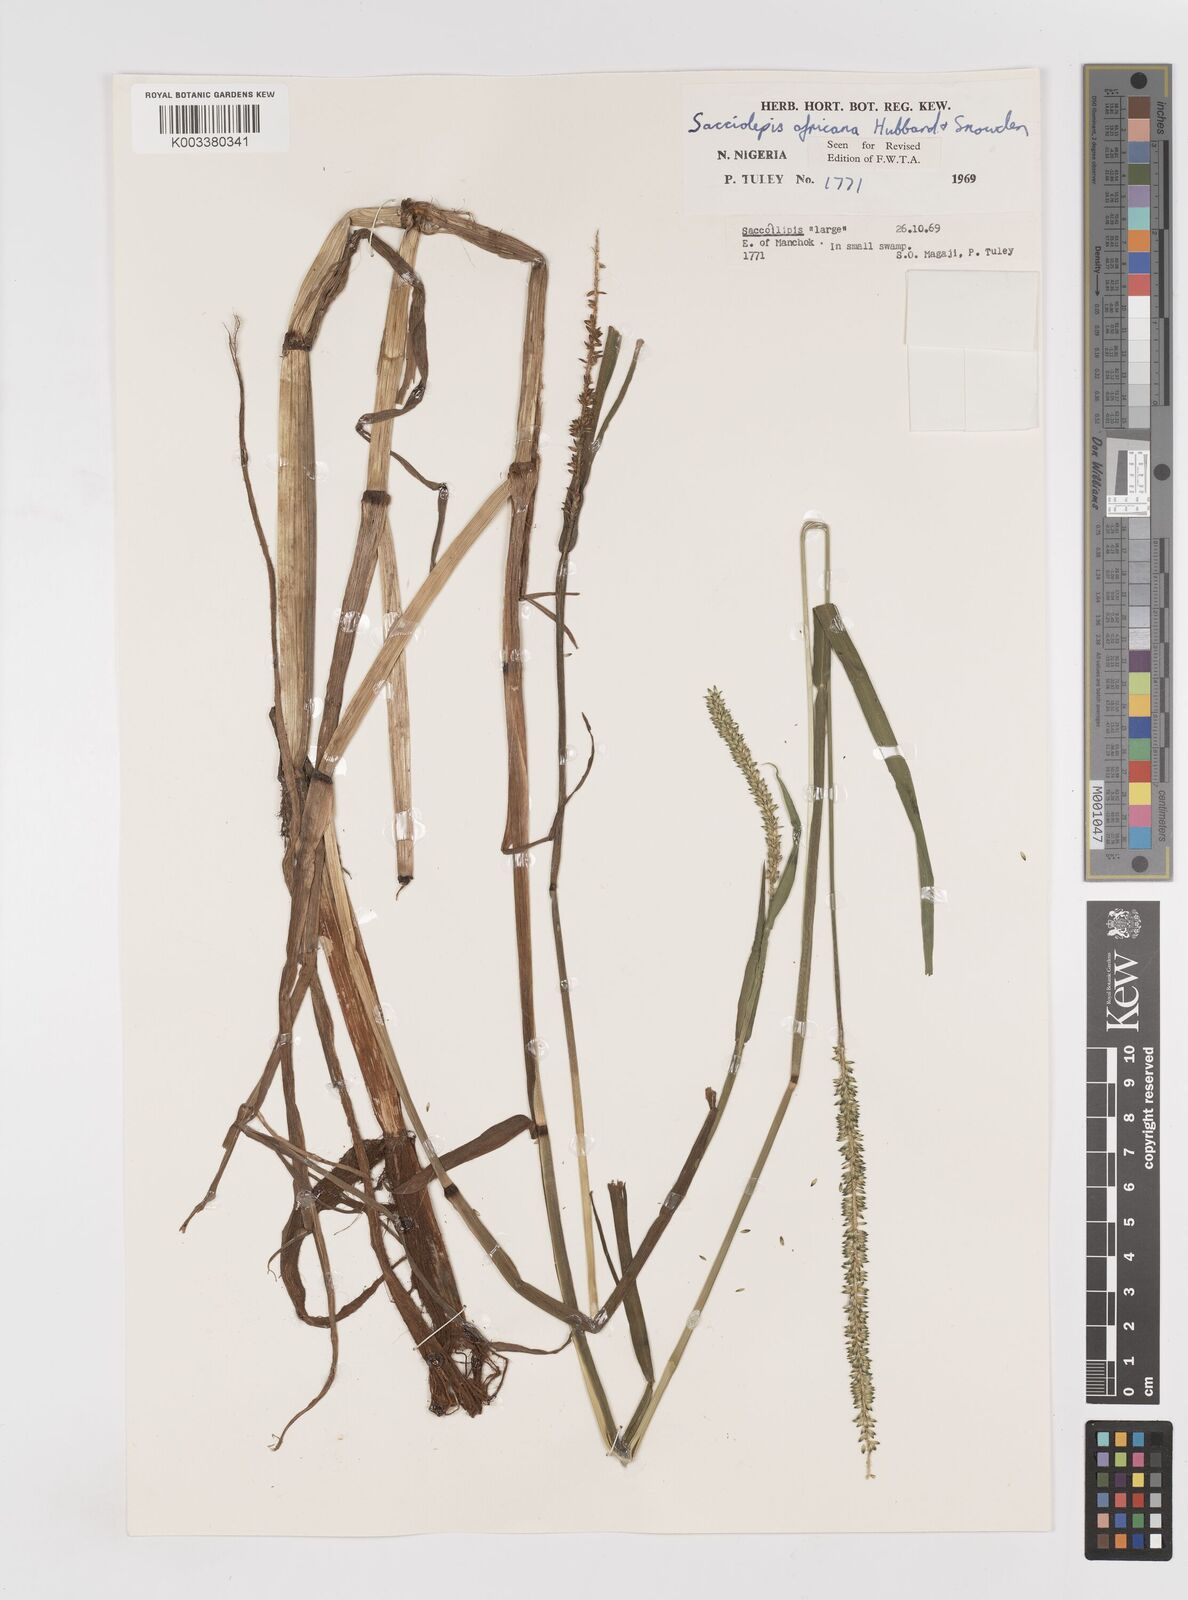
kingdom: Plantae
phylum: Tracheophyta
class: Liliopsida
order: Poales
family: Poaceae
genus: Sacciolepis
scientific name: Sacciolepis africana
